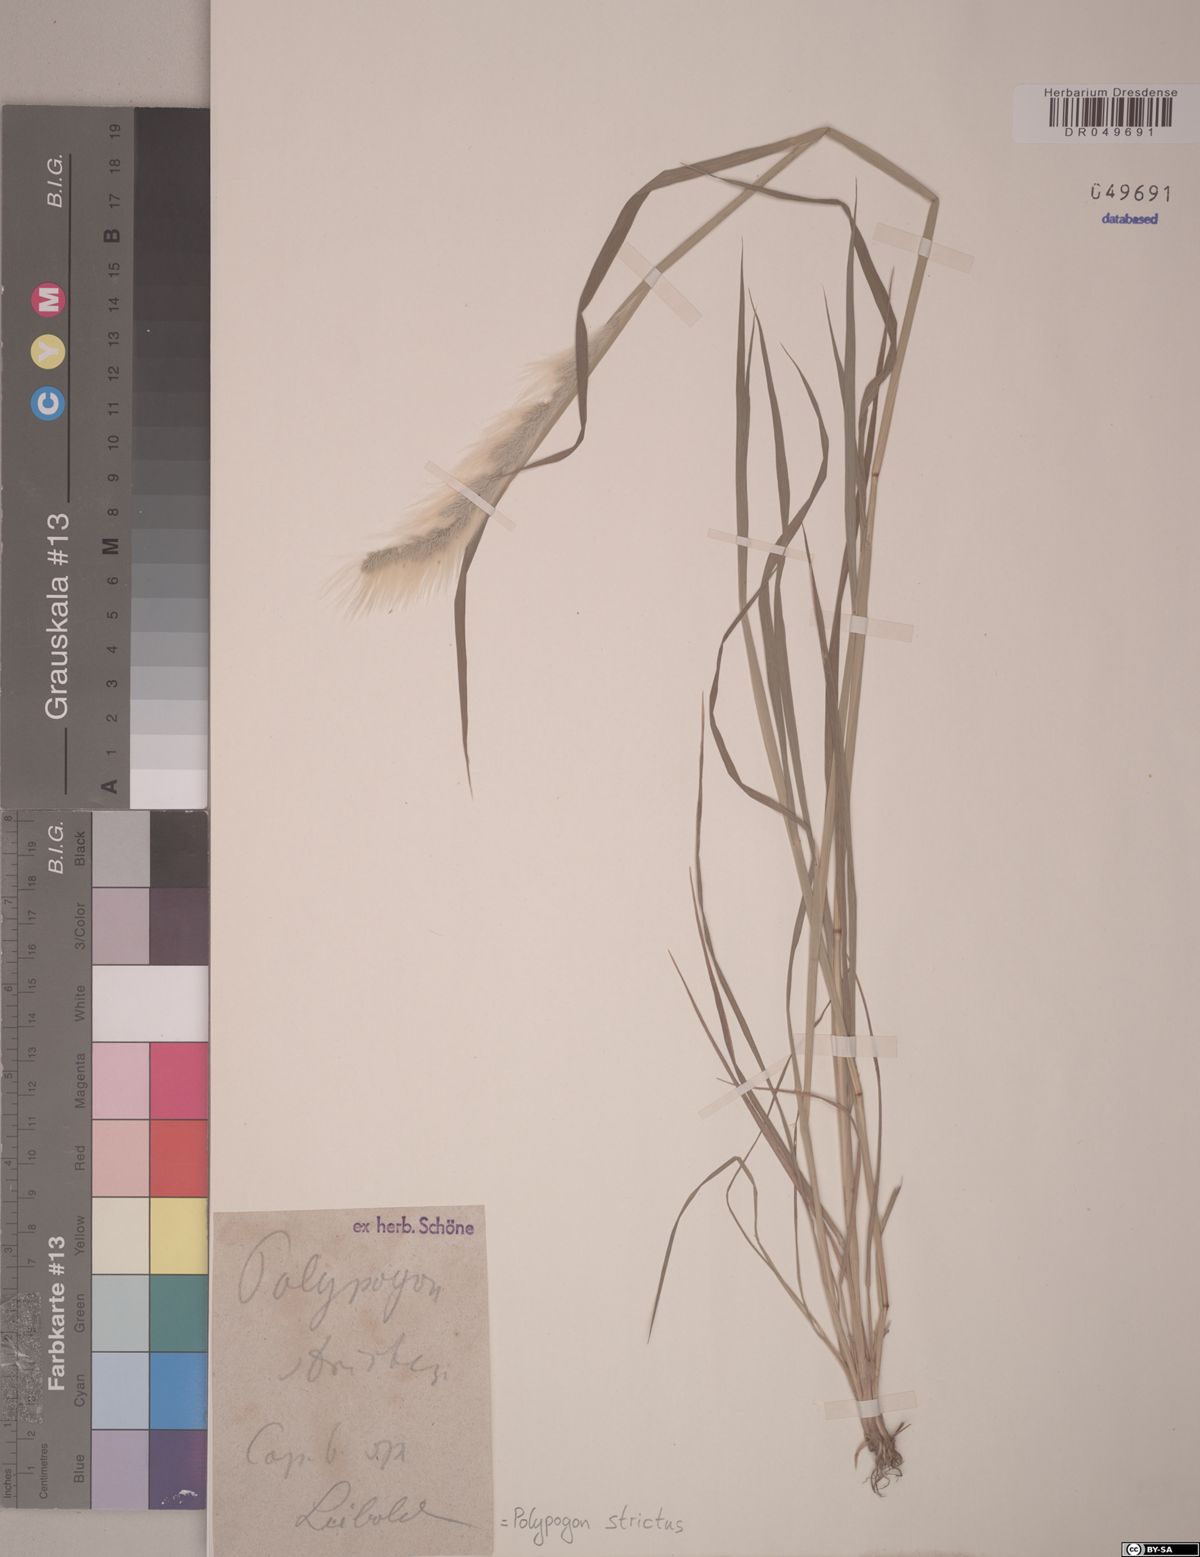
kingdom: Plantae
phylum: Tracheophyta
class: Liliopsida
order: Poales
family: Poaceae
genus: Polypogon
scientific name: Polypogon tenuis
